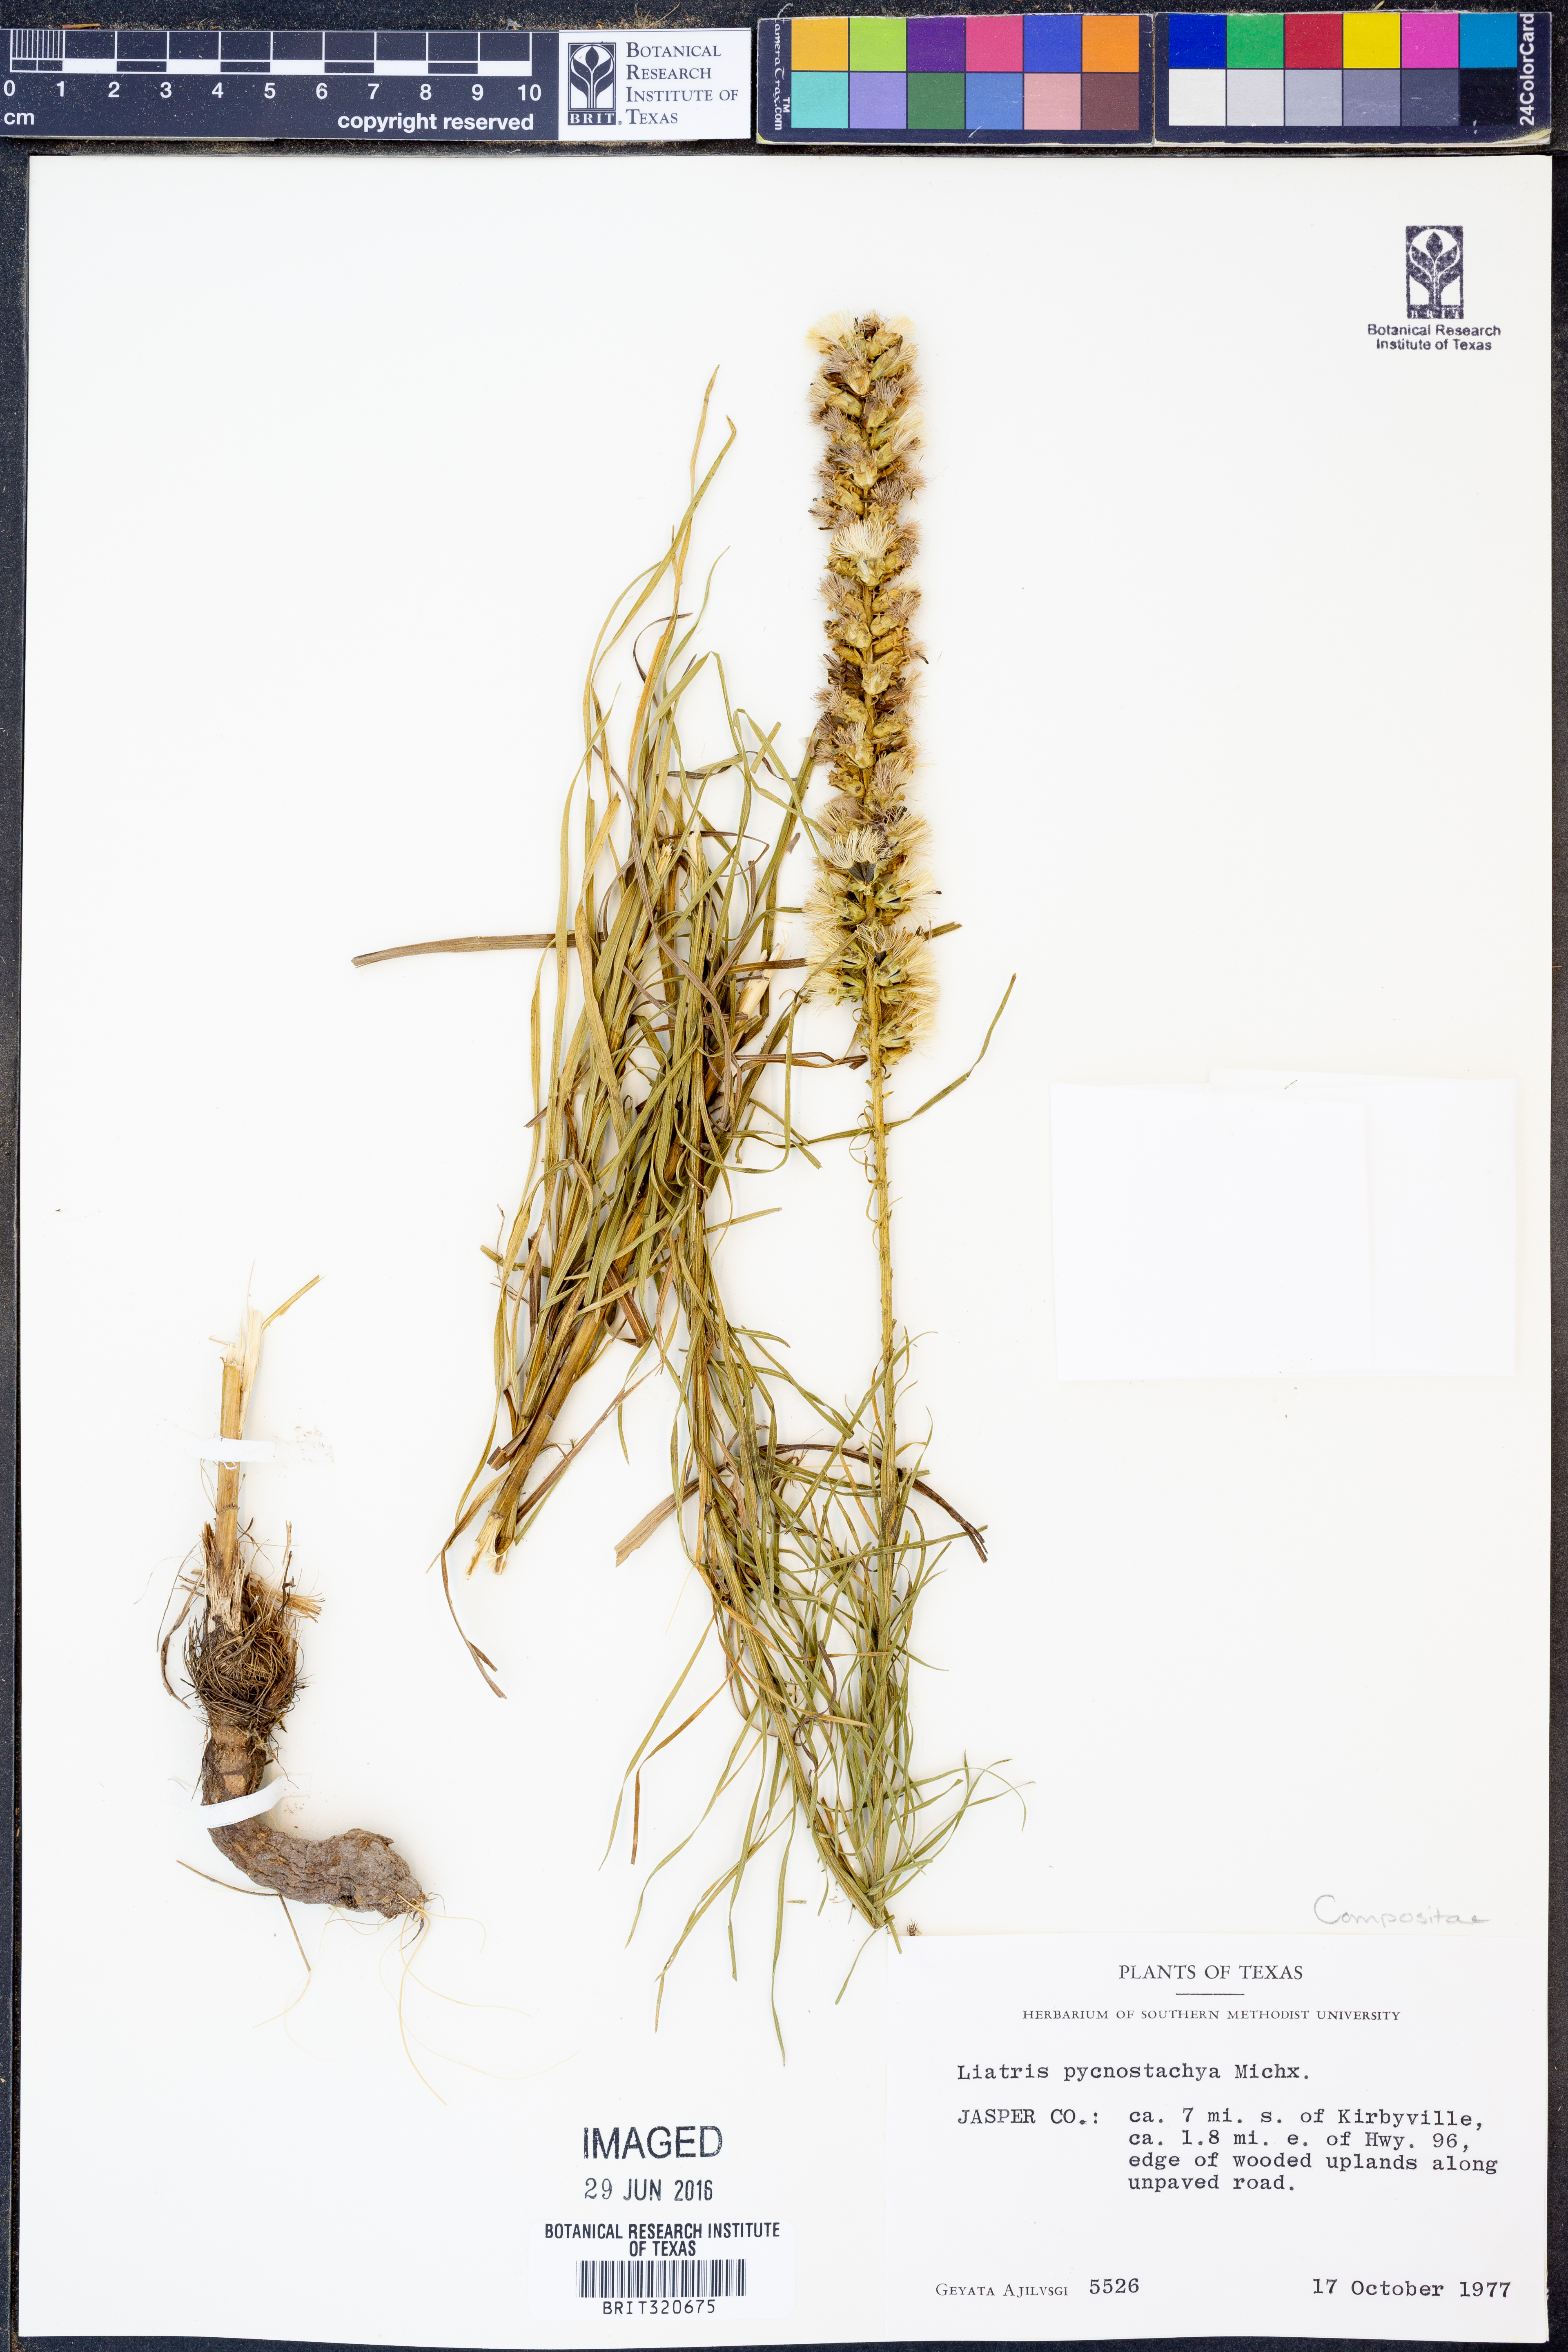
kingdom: Plantae
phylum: Tracheophyta
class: Magnoliopsida
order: Asterales
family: Asteraceae
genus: Liatris
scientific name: Liatris pycnostachya
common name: Cattail gayfeather
